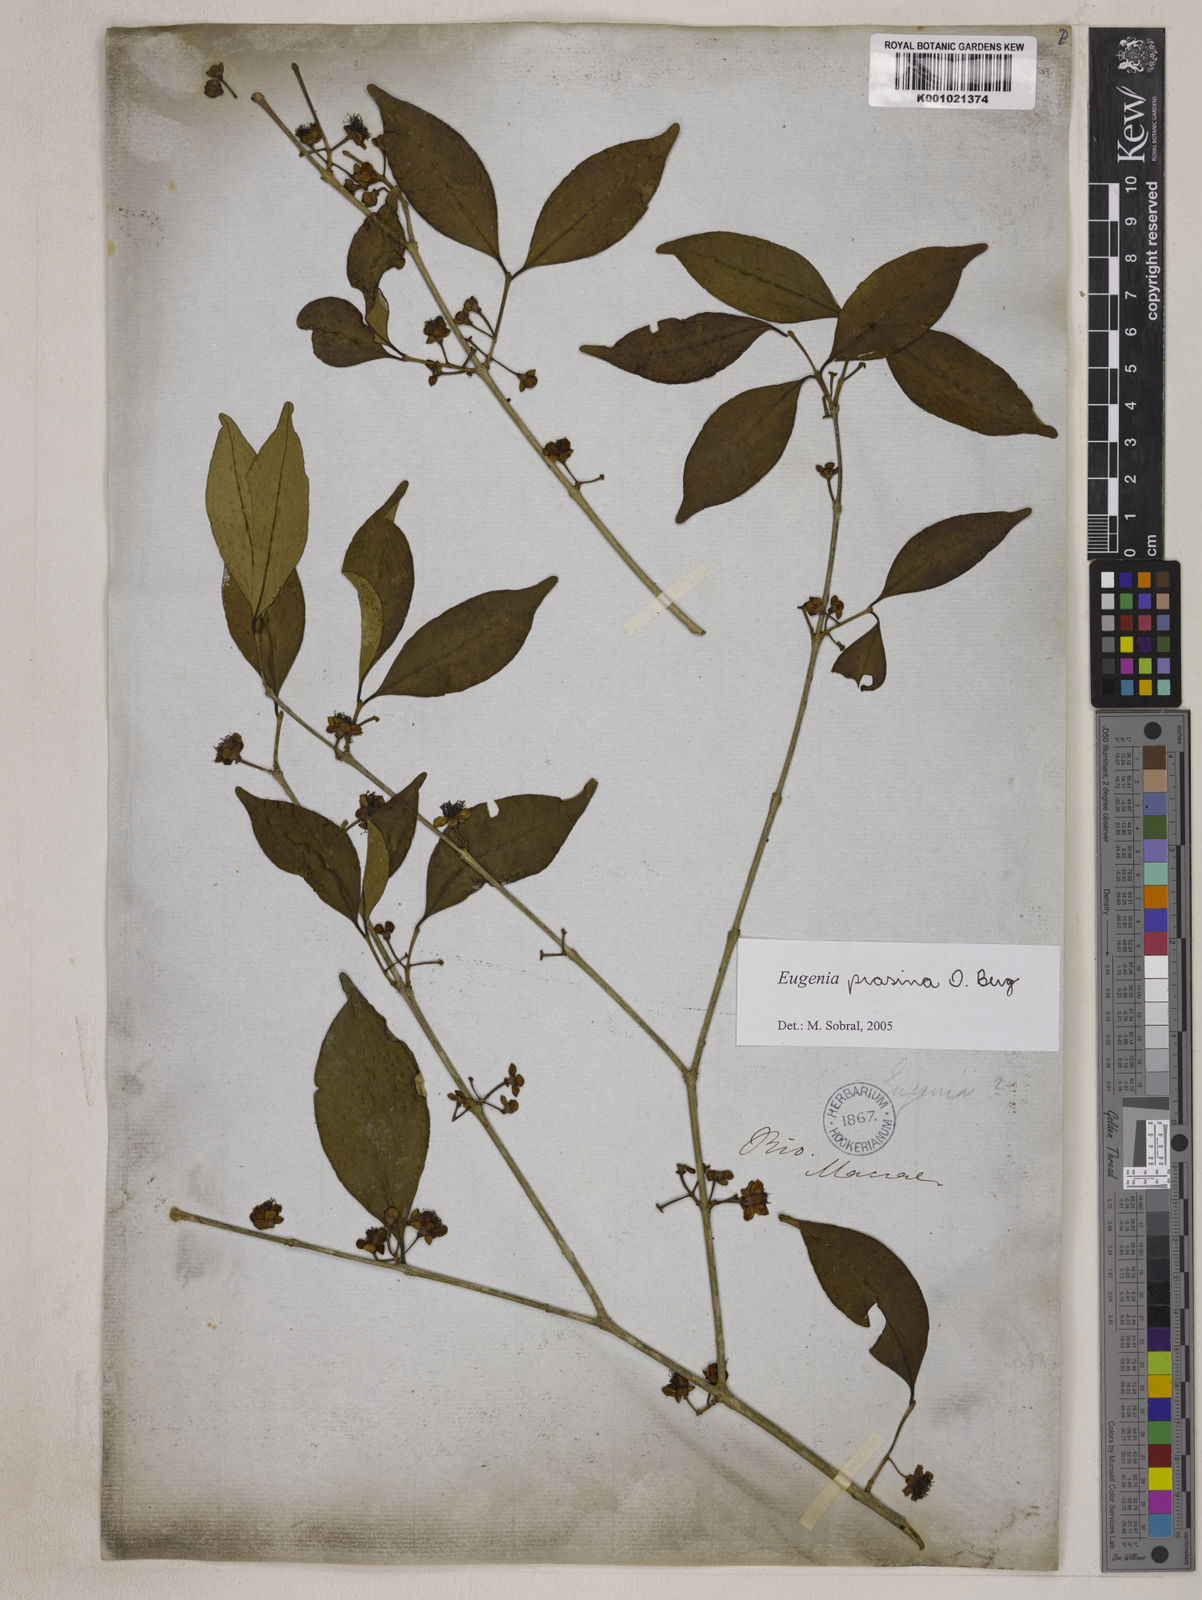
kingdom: Plantae
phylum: Tracheophyta
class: Magnoliopsida
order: Myrtales
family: Myrtaceae
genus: Eugenia
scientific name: Eugenia prasina
